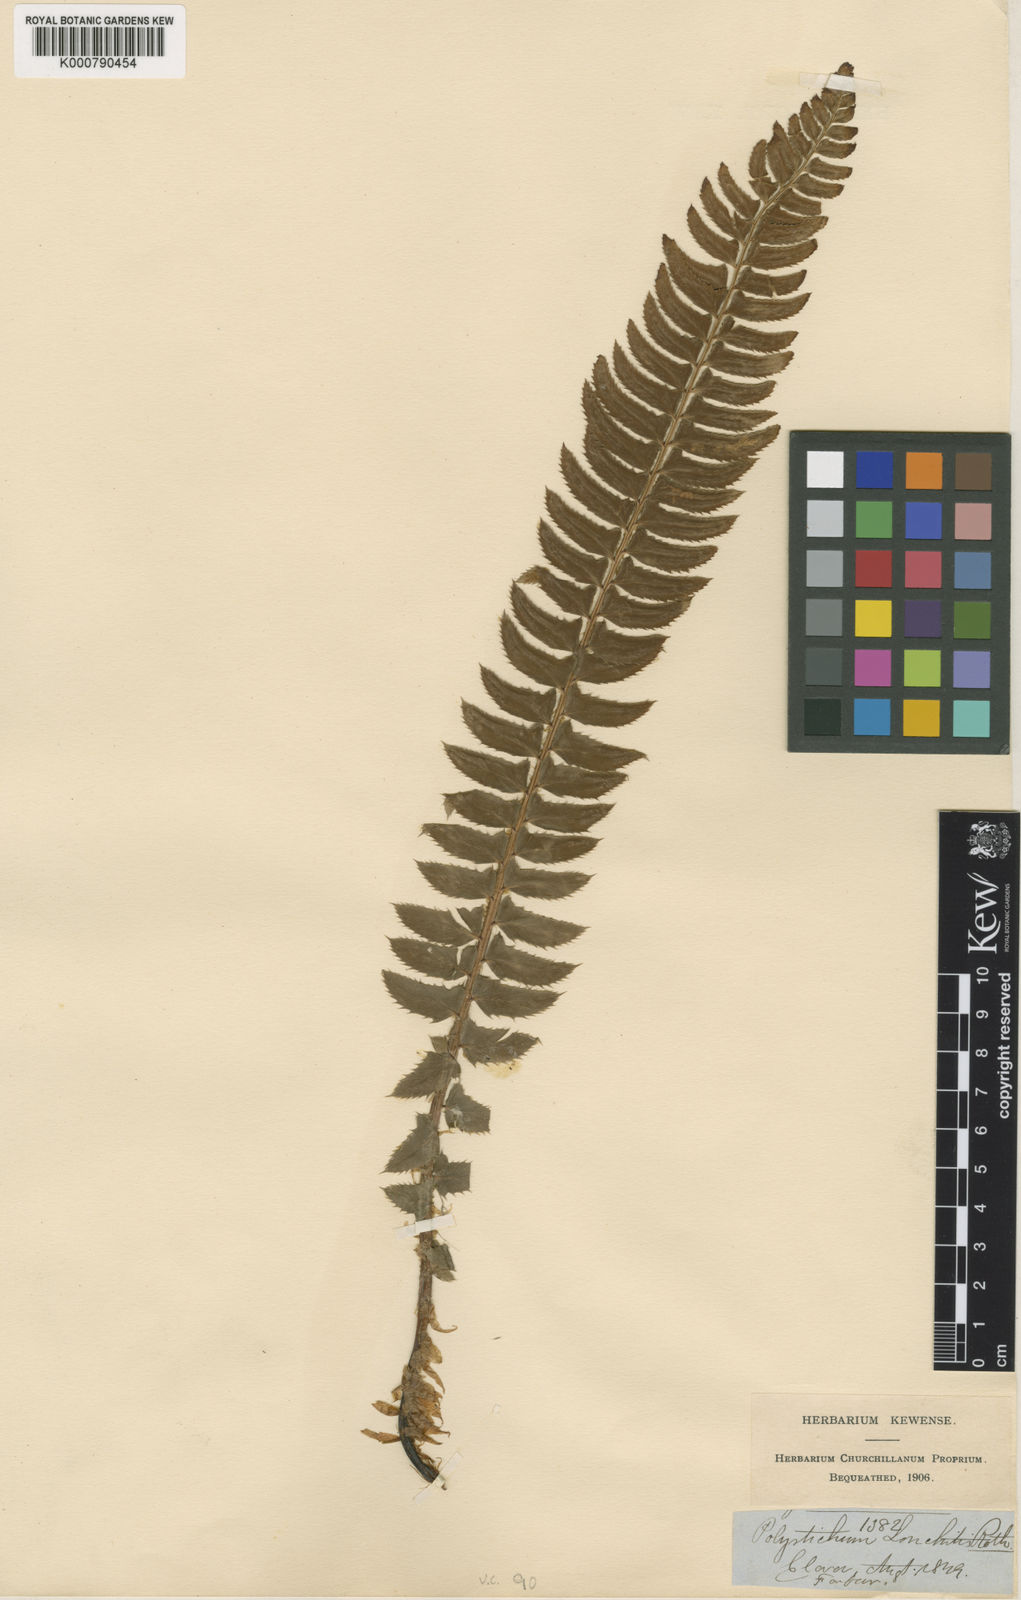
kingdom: Plantae
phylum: Tracheophyta
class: Polypodiopsida
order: Polypodiales
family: Dryopteridaceae
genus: Polystichum
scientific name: Polystichum
